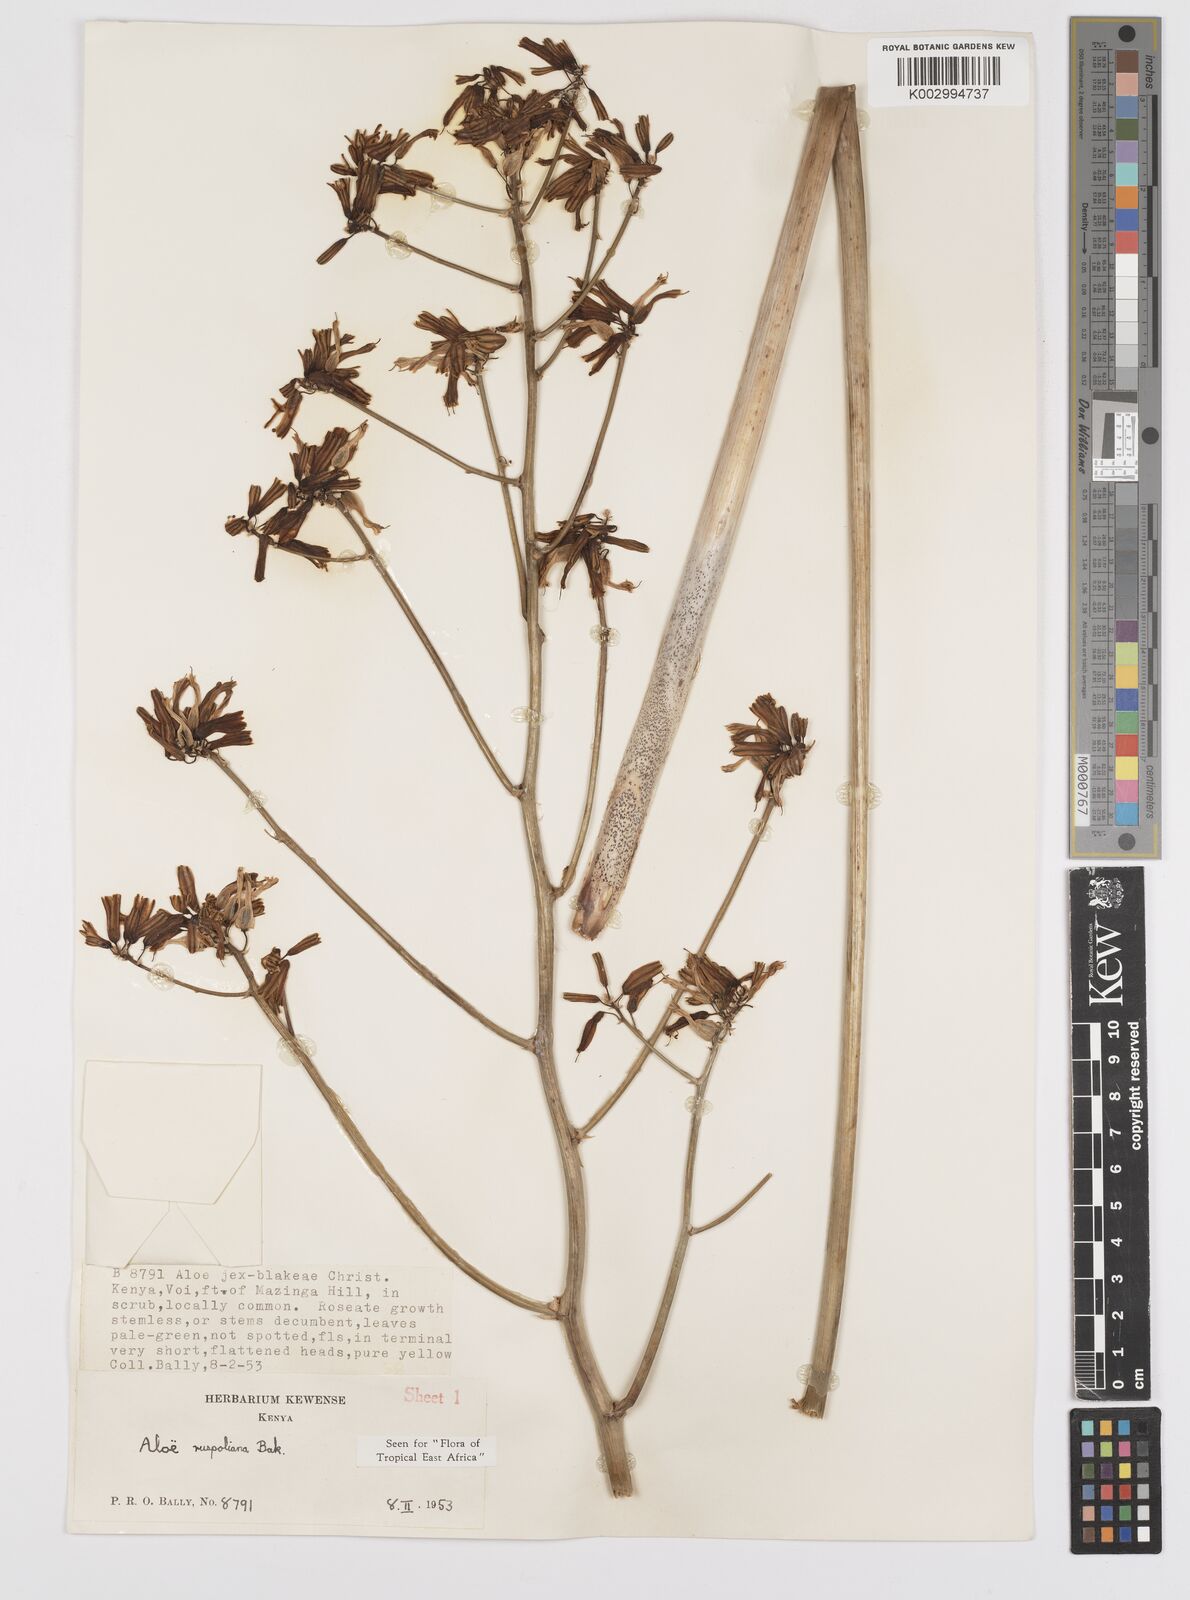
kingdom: Plantae
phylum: Tracheophyta
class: Liliopsida
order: Asparagales
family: Asphodelaceae
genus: Aloe
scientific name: Aloe ruspoliana
